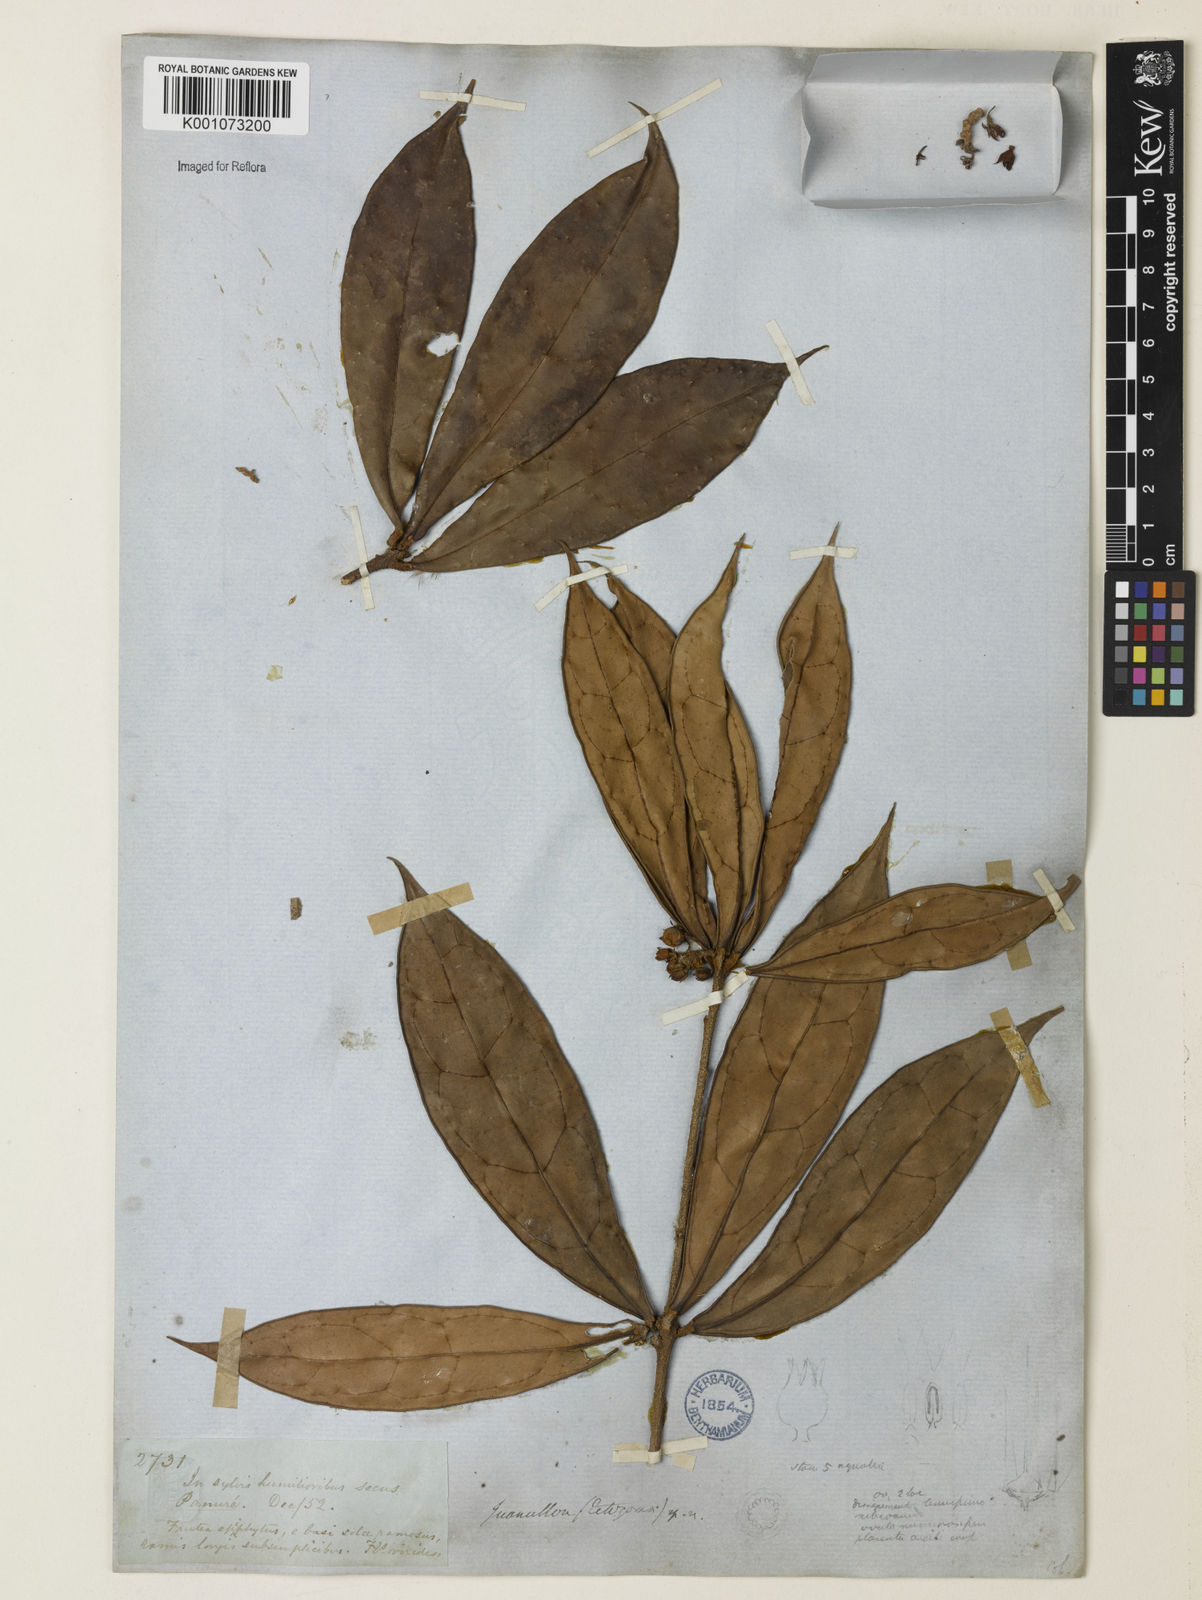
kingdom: Plantae
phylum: Tracheophyta
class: Magnoliopsida
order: Solanales
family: Solanaceae
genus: Juanulloa
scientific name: Juanulloa
